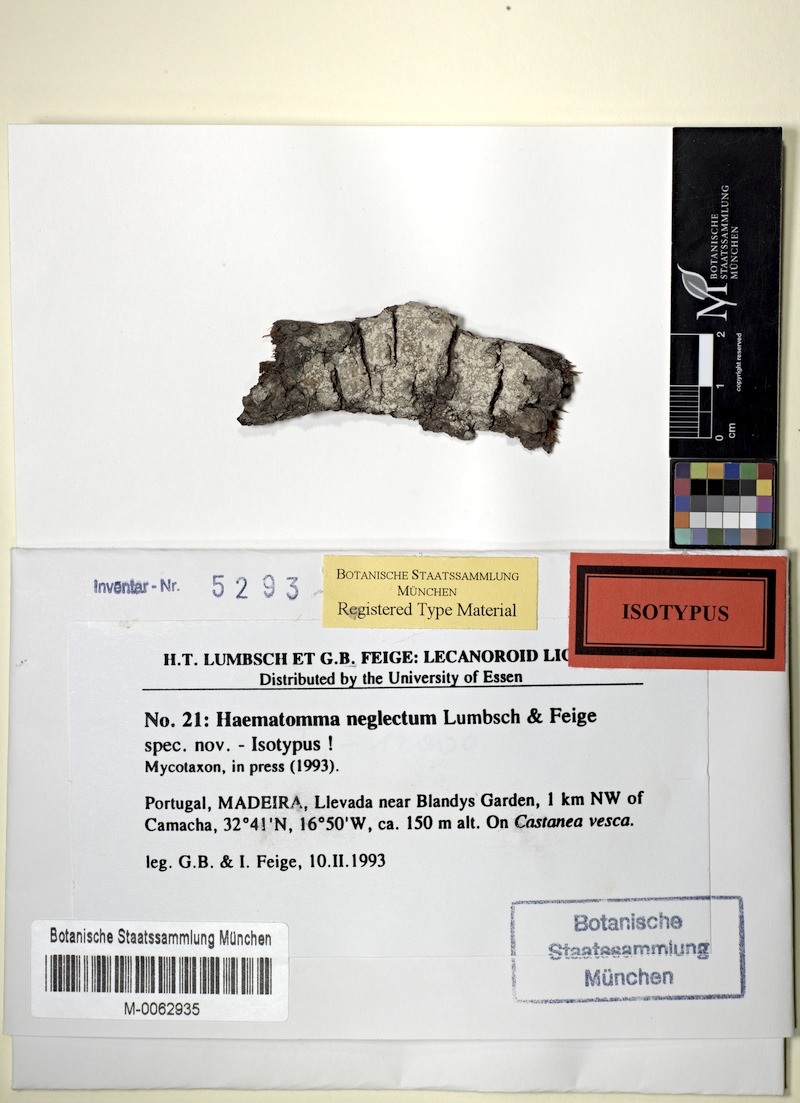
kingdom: Fungi
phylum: Ascomycota
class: Lecanoromycetes
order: Lecanorales
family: Haematommataceae
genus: Haematomma
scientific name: Haematomma sorediatum
